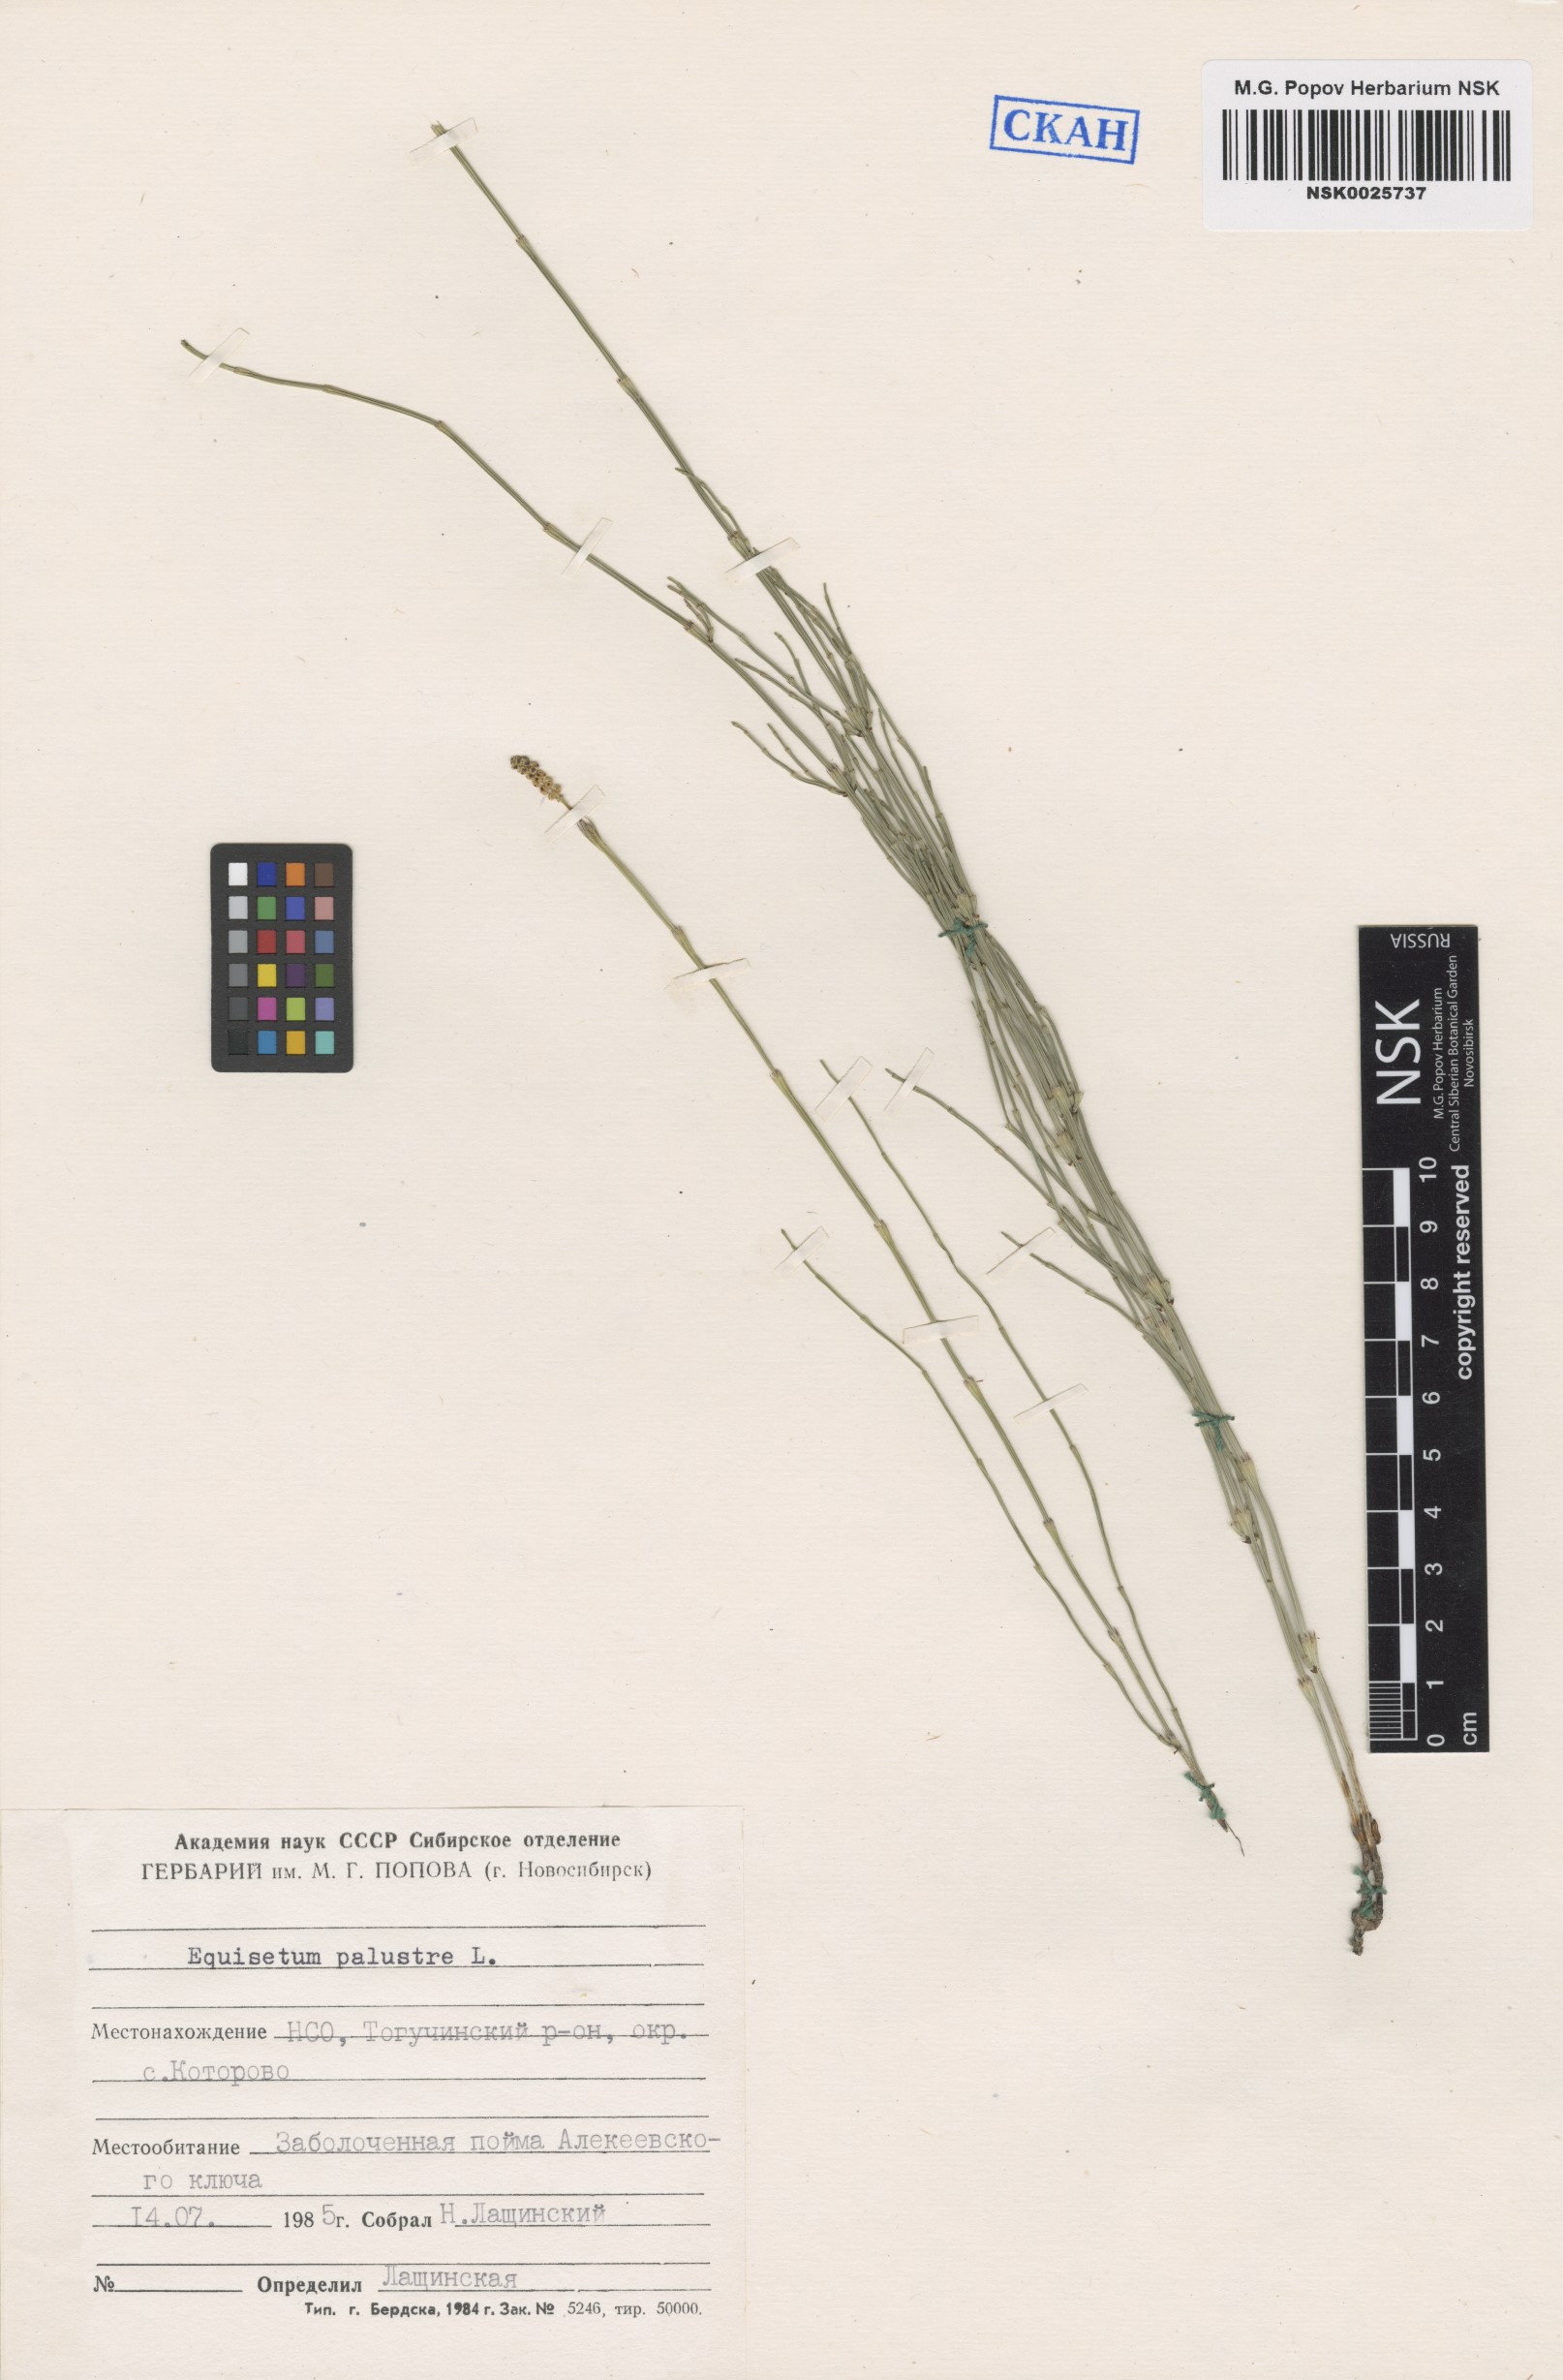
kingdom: Plantae
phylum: Tracheophyta
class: Polypodiopsida
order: Equisetales
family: Equisetaceae
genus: Equisetum
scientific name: Equisetum palustre
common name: Marsh horsetail
